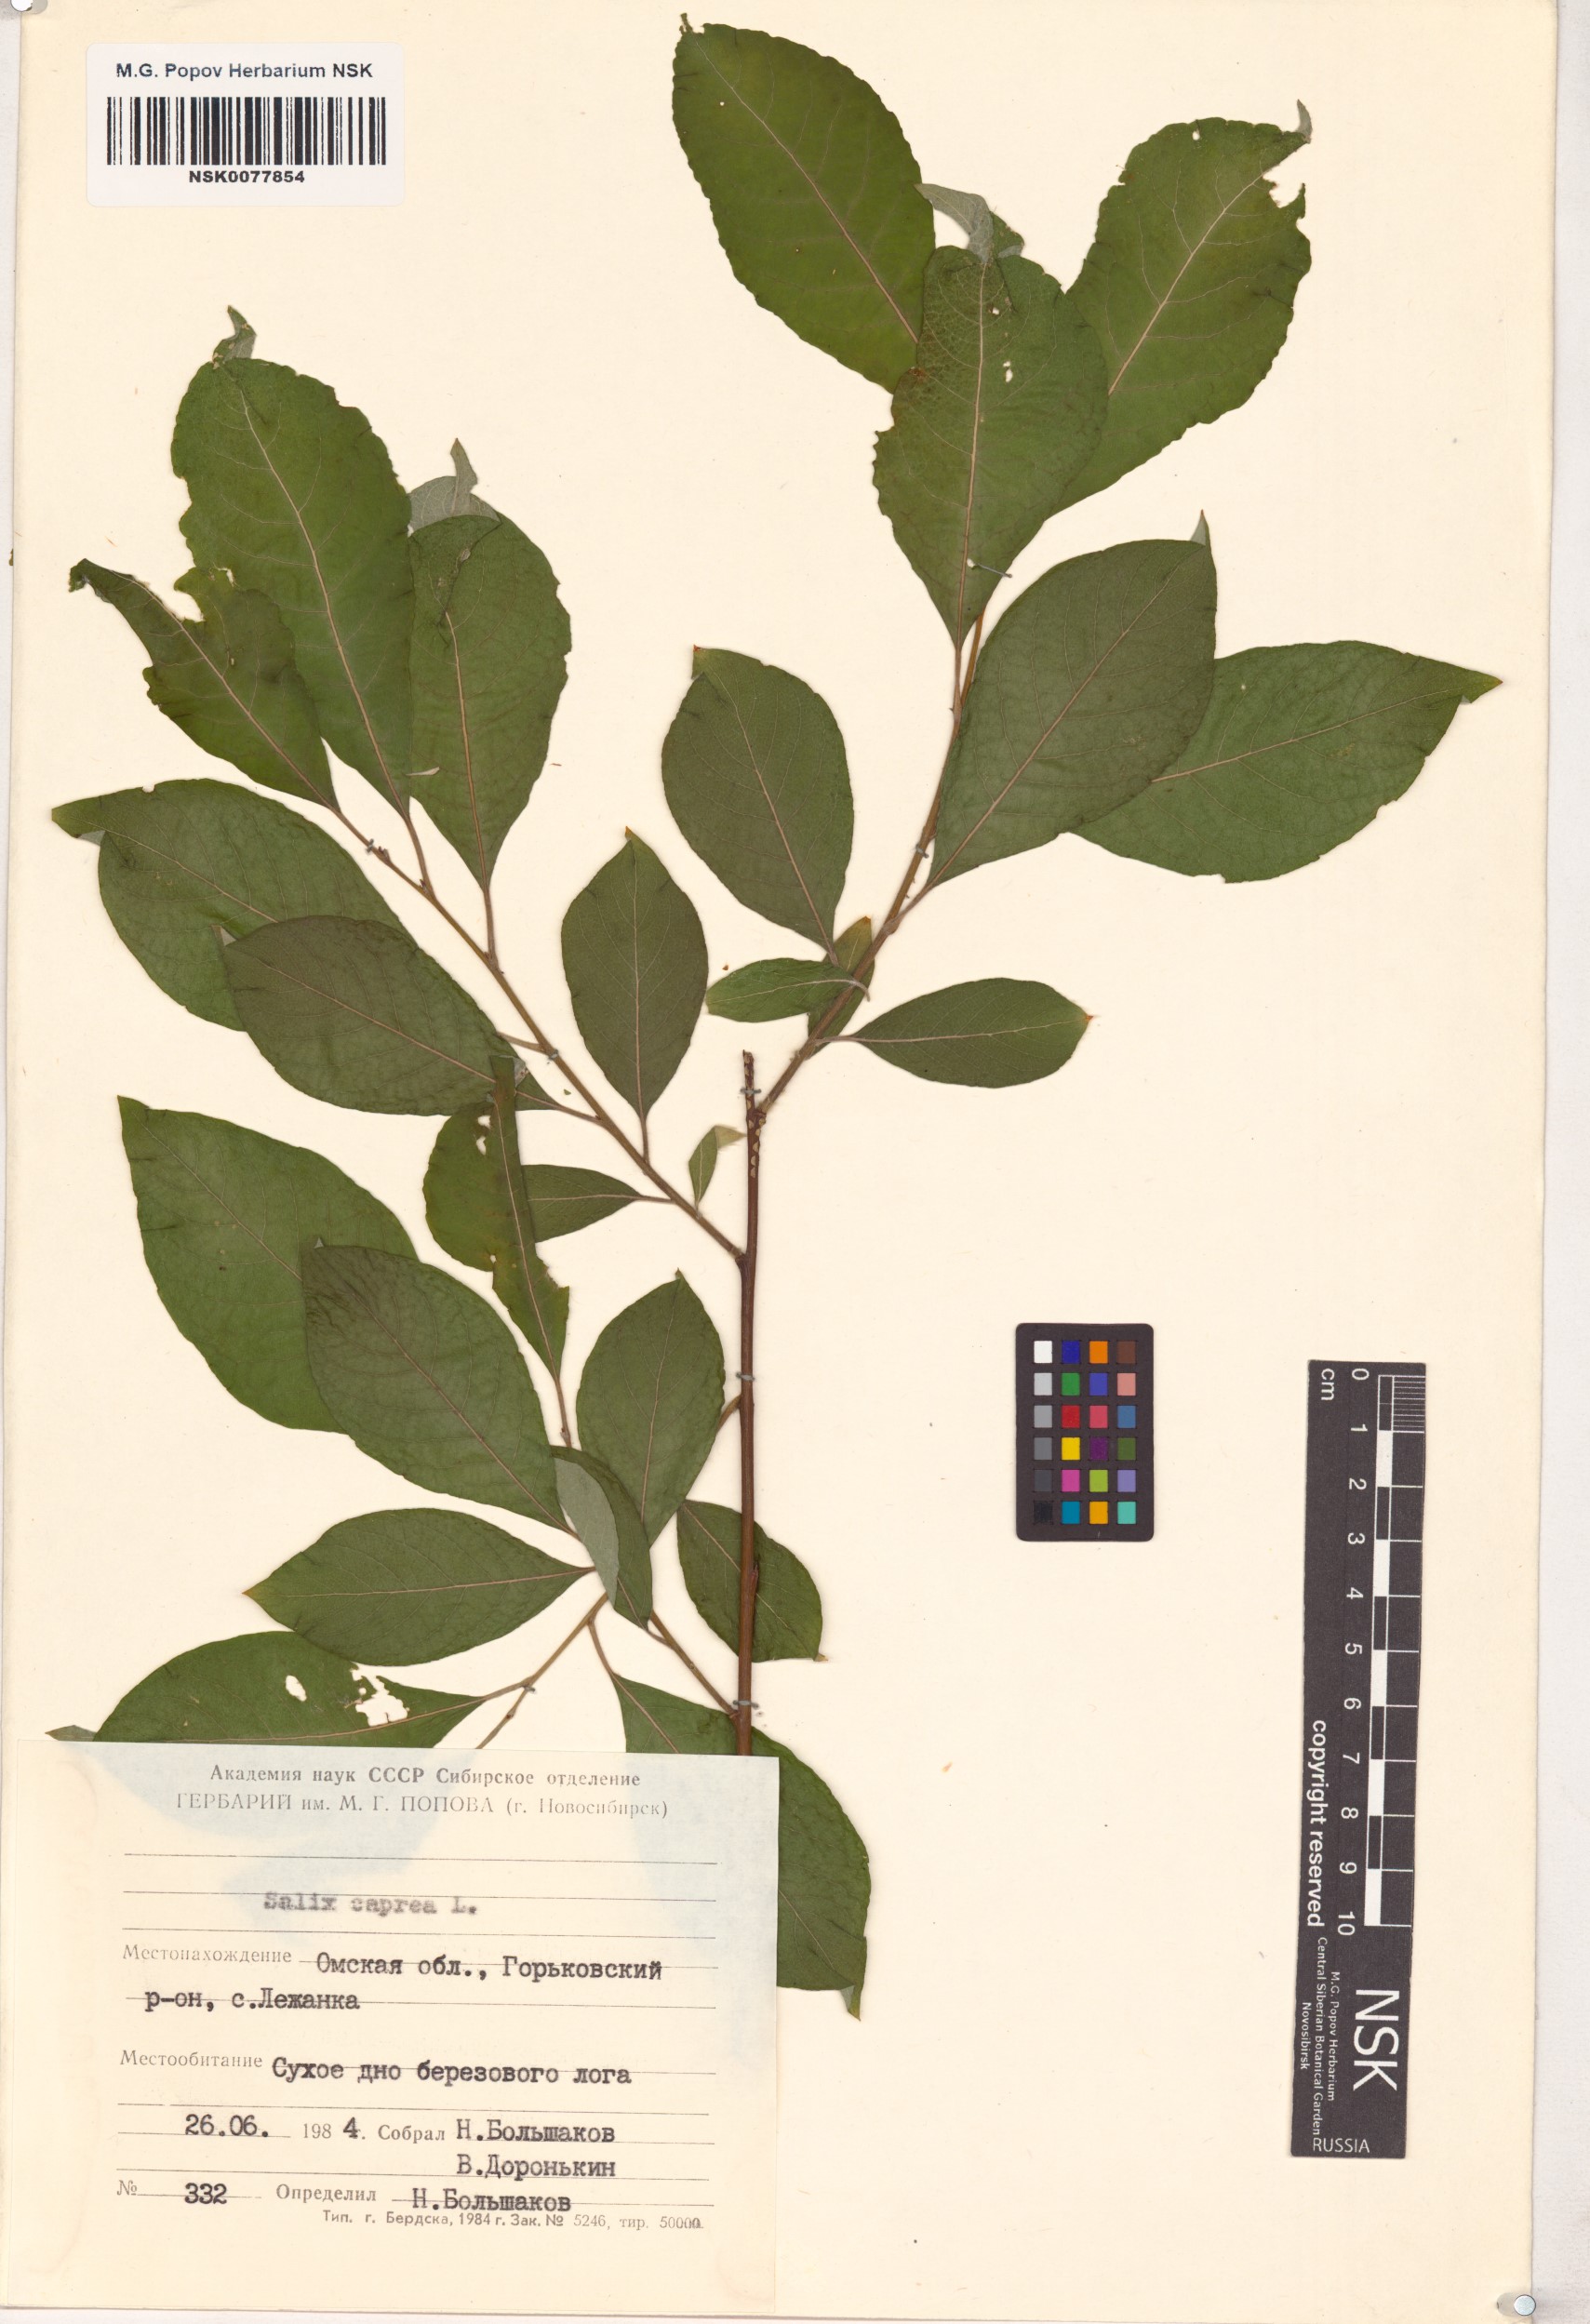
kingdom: Plantae
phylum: Tracheophyta
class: Magnoliopsida
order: Malpighiales
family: Salicaceae
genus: Salix
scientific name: Salix caprea
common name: Goat willow
